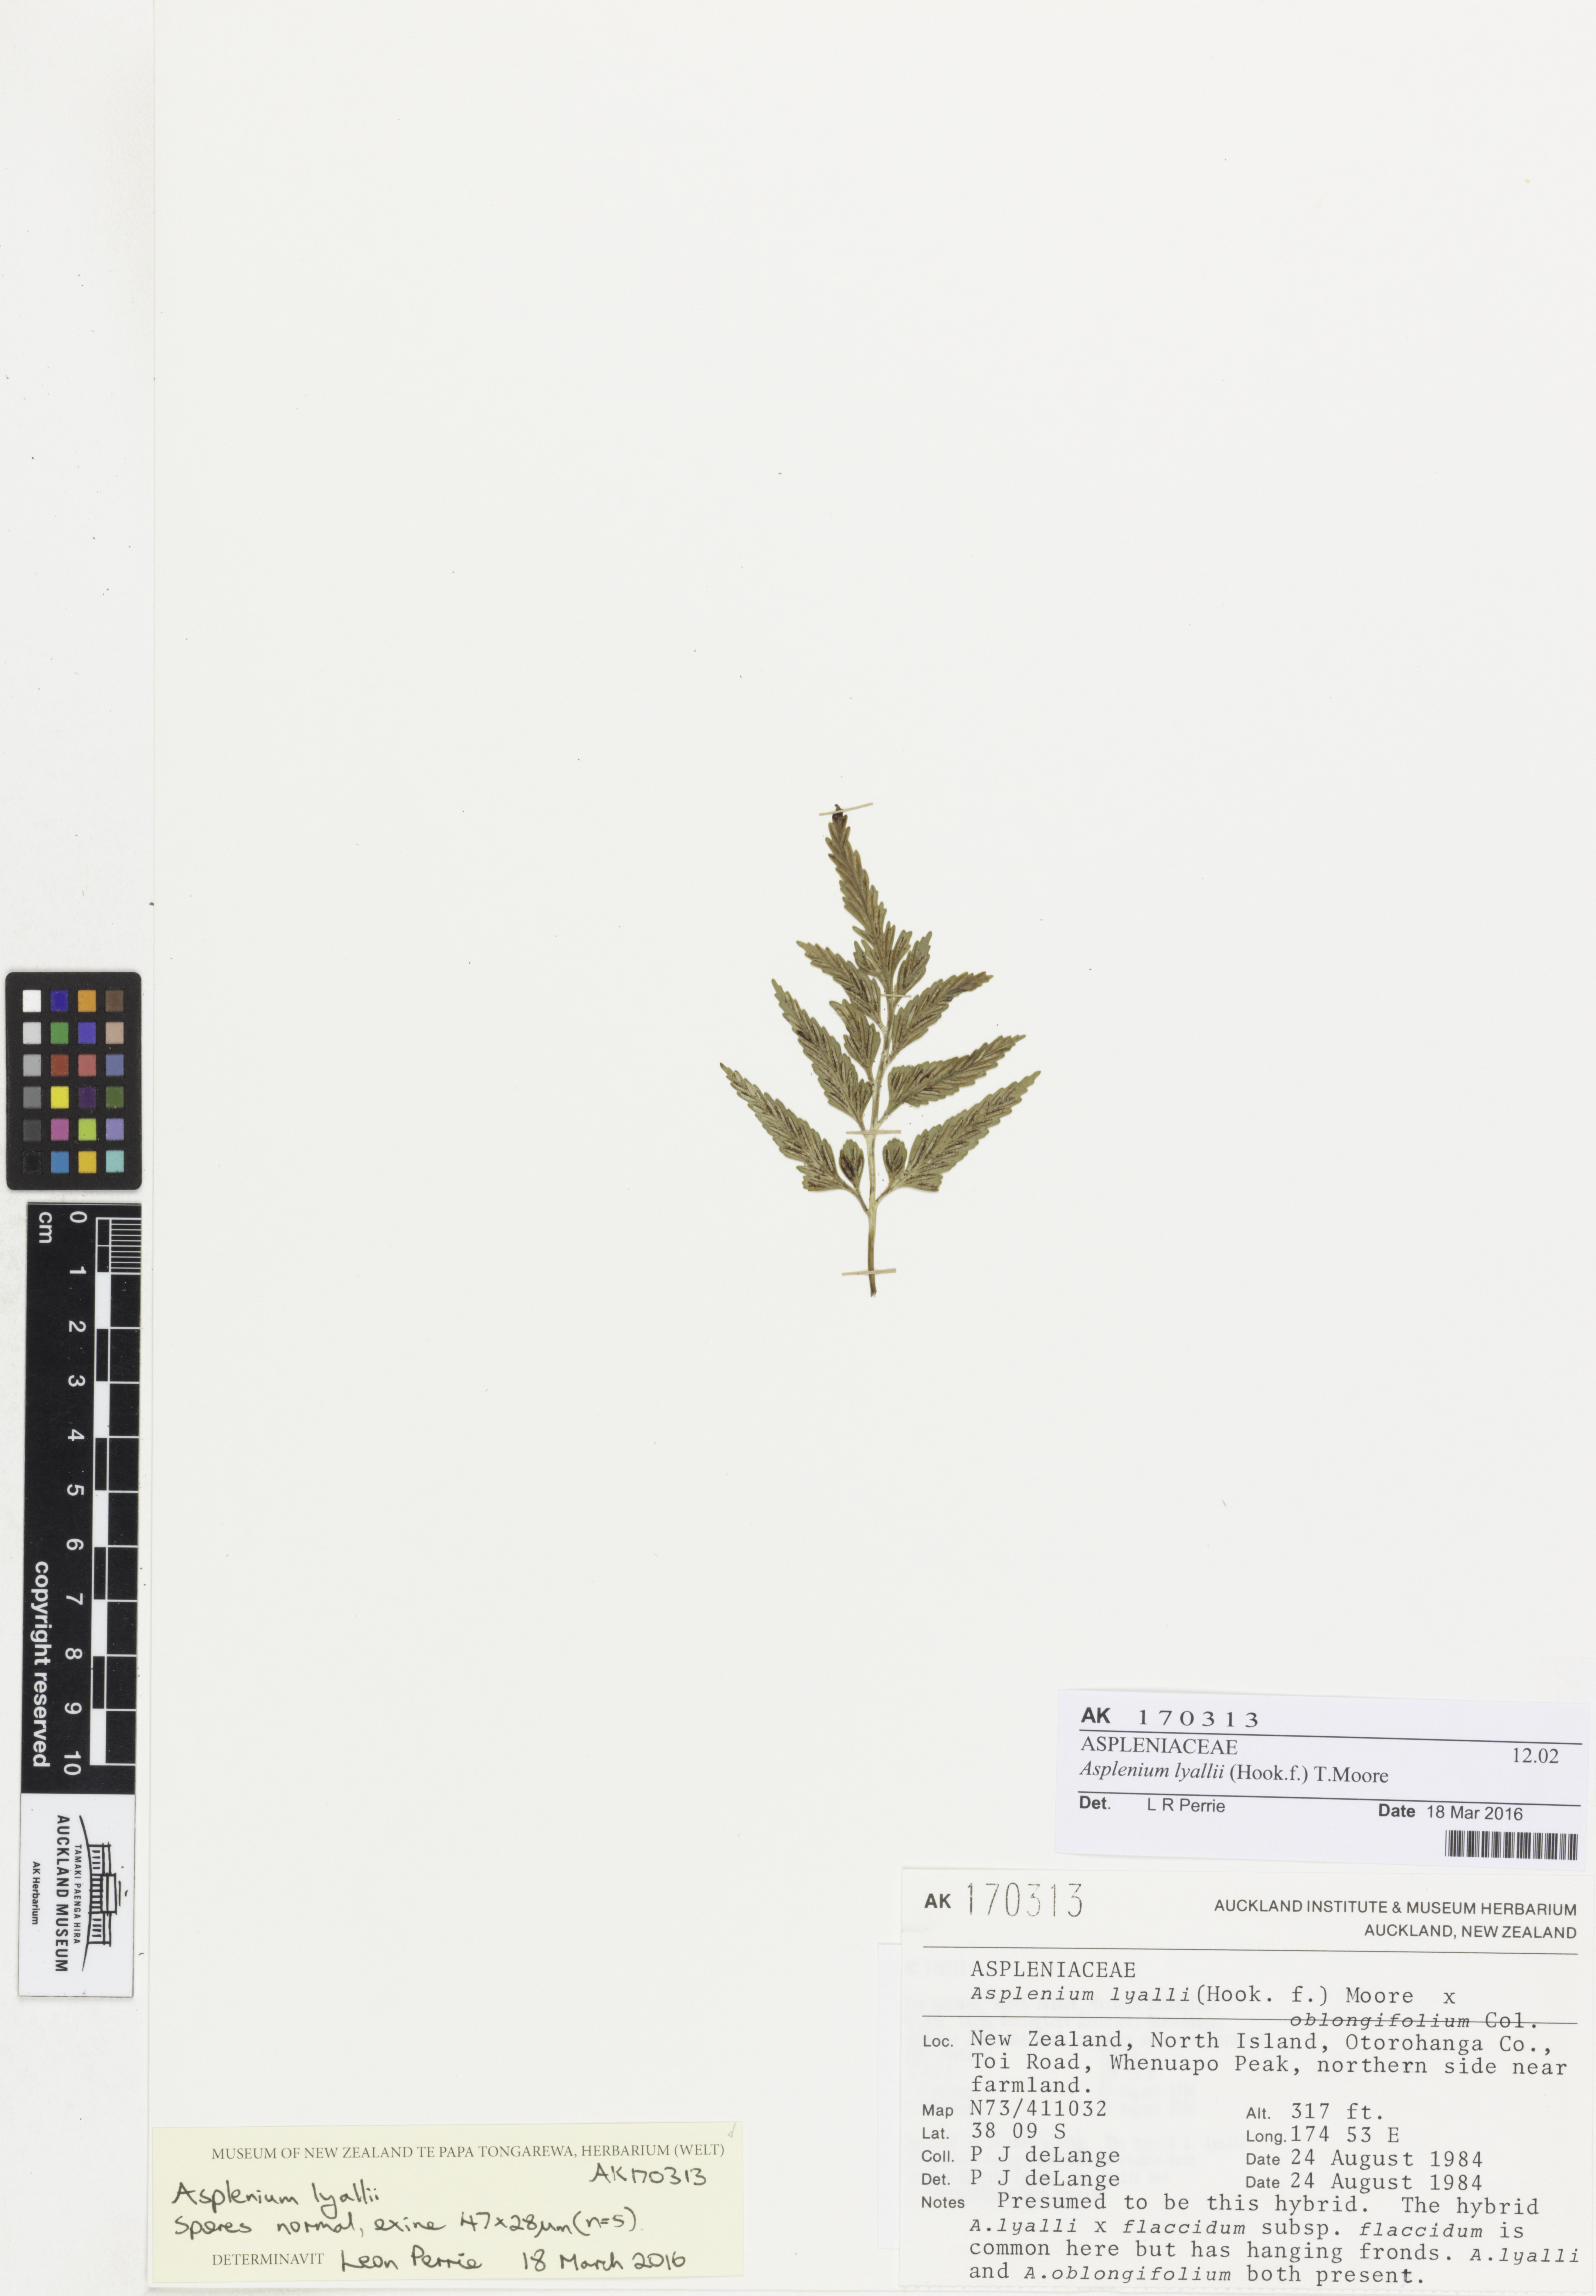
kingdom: Plantae
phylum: Tracheophyta
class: Polypodiopsida
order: Polypodiales
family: Aspleniaceae
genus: Asplenium
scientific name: Asplenium lyallii
